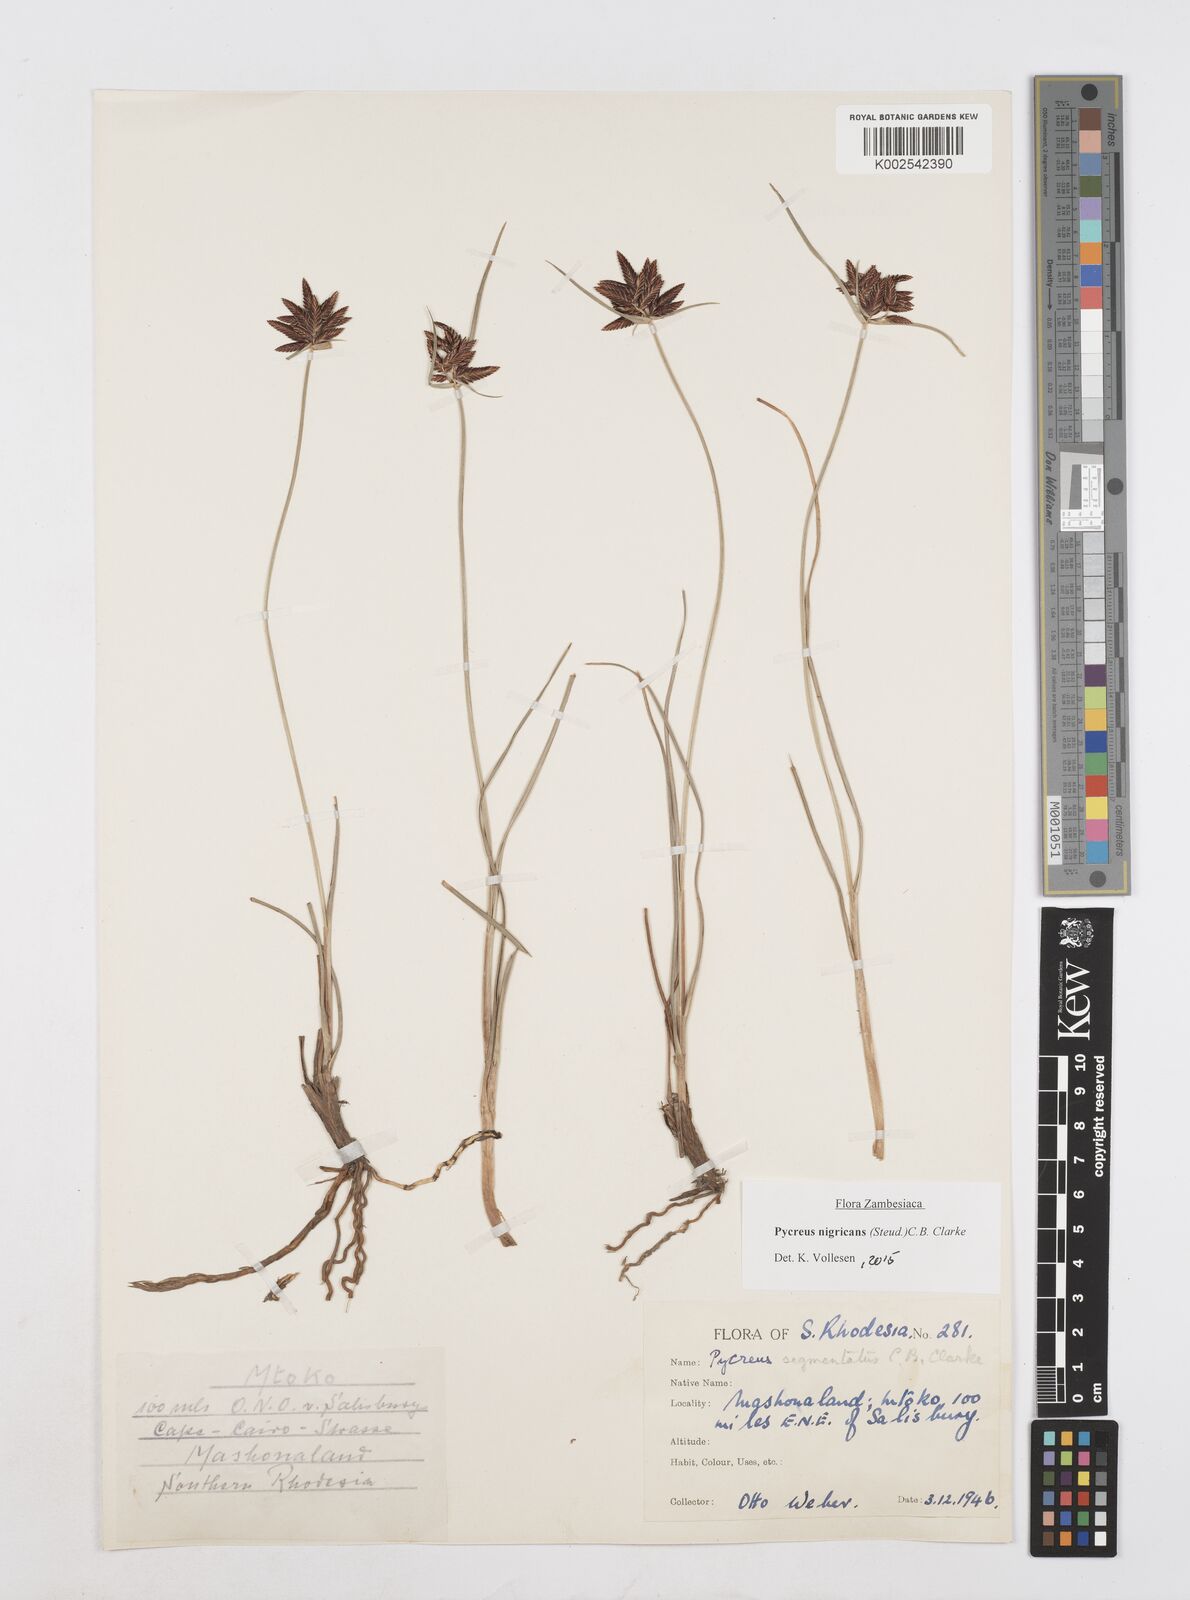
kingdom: Plantae
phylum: Tracheophyta
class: Liliopsida
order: Poales
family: Cyperaceae
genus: Cyperus
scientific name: Cyperus nigricans
